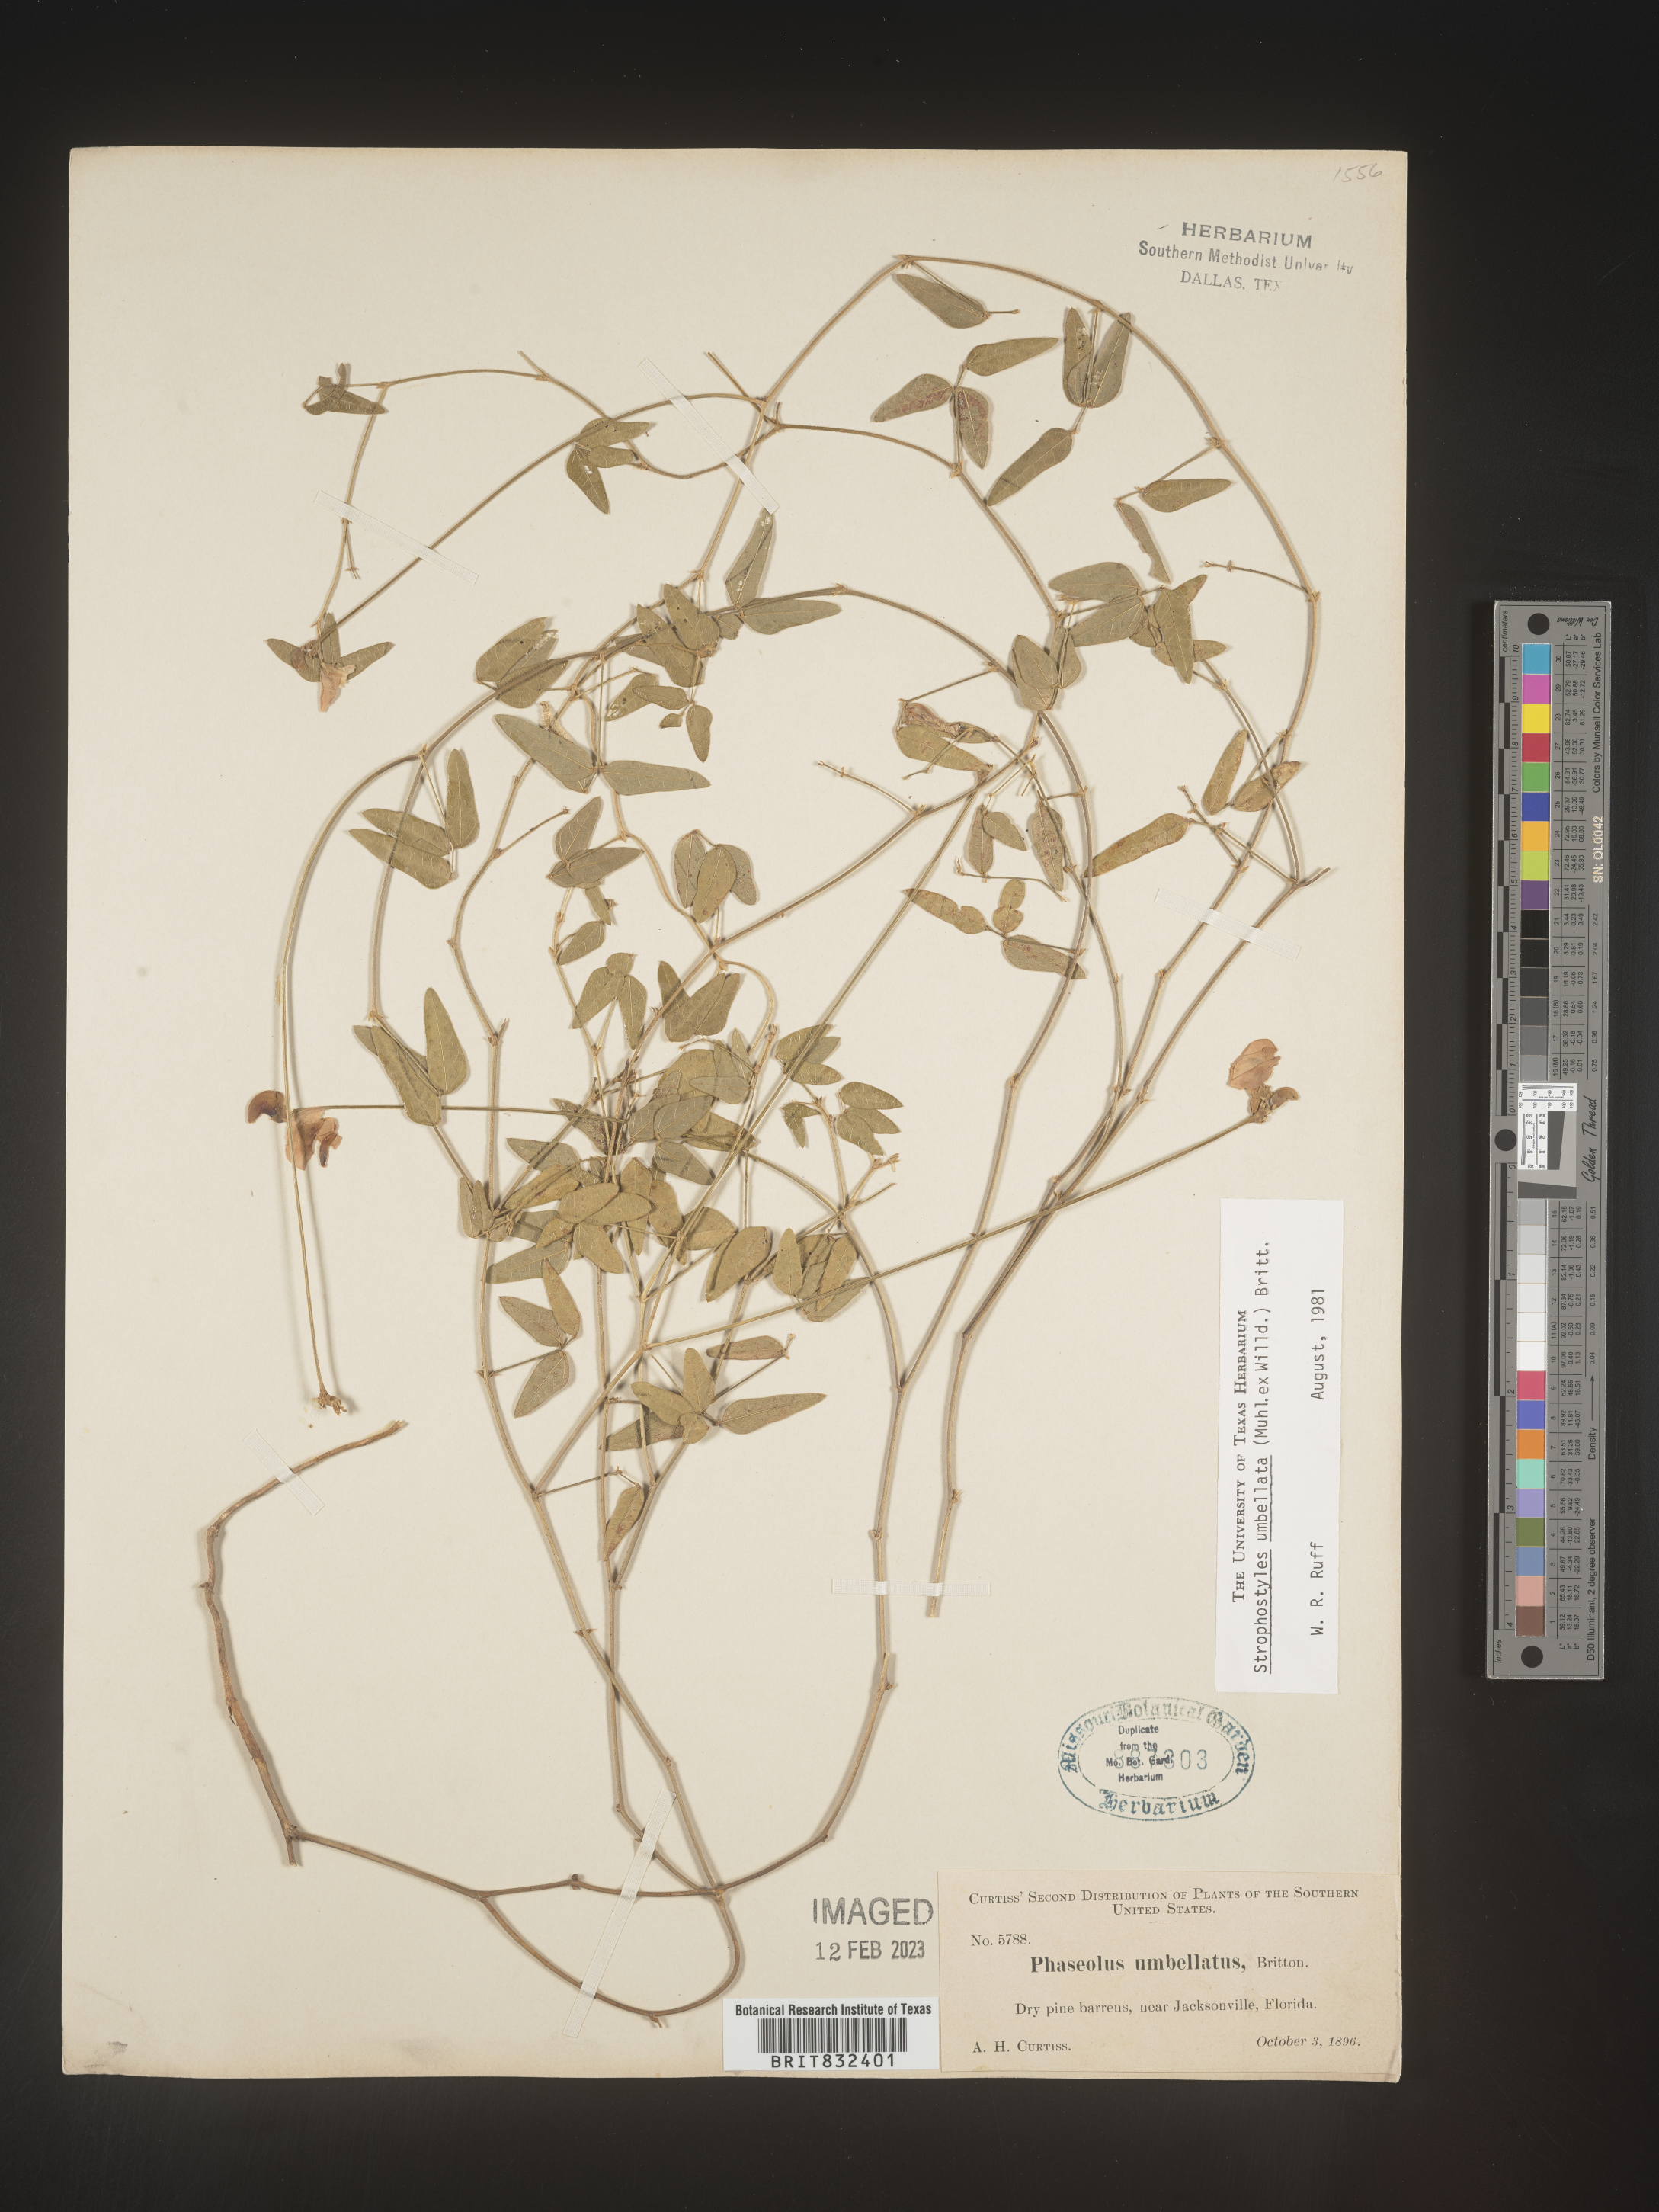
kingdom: Plantae
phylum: Tracheophyta
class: Magnoliopsida
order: Fabales
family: Fabaceae
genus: Strophostyles
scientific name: Strophostyles umbellata
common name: Perennial wild bean
